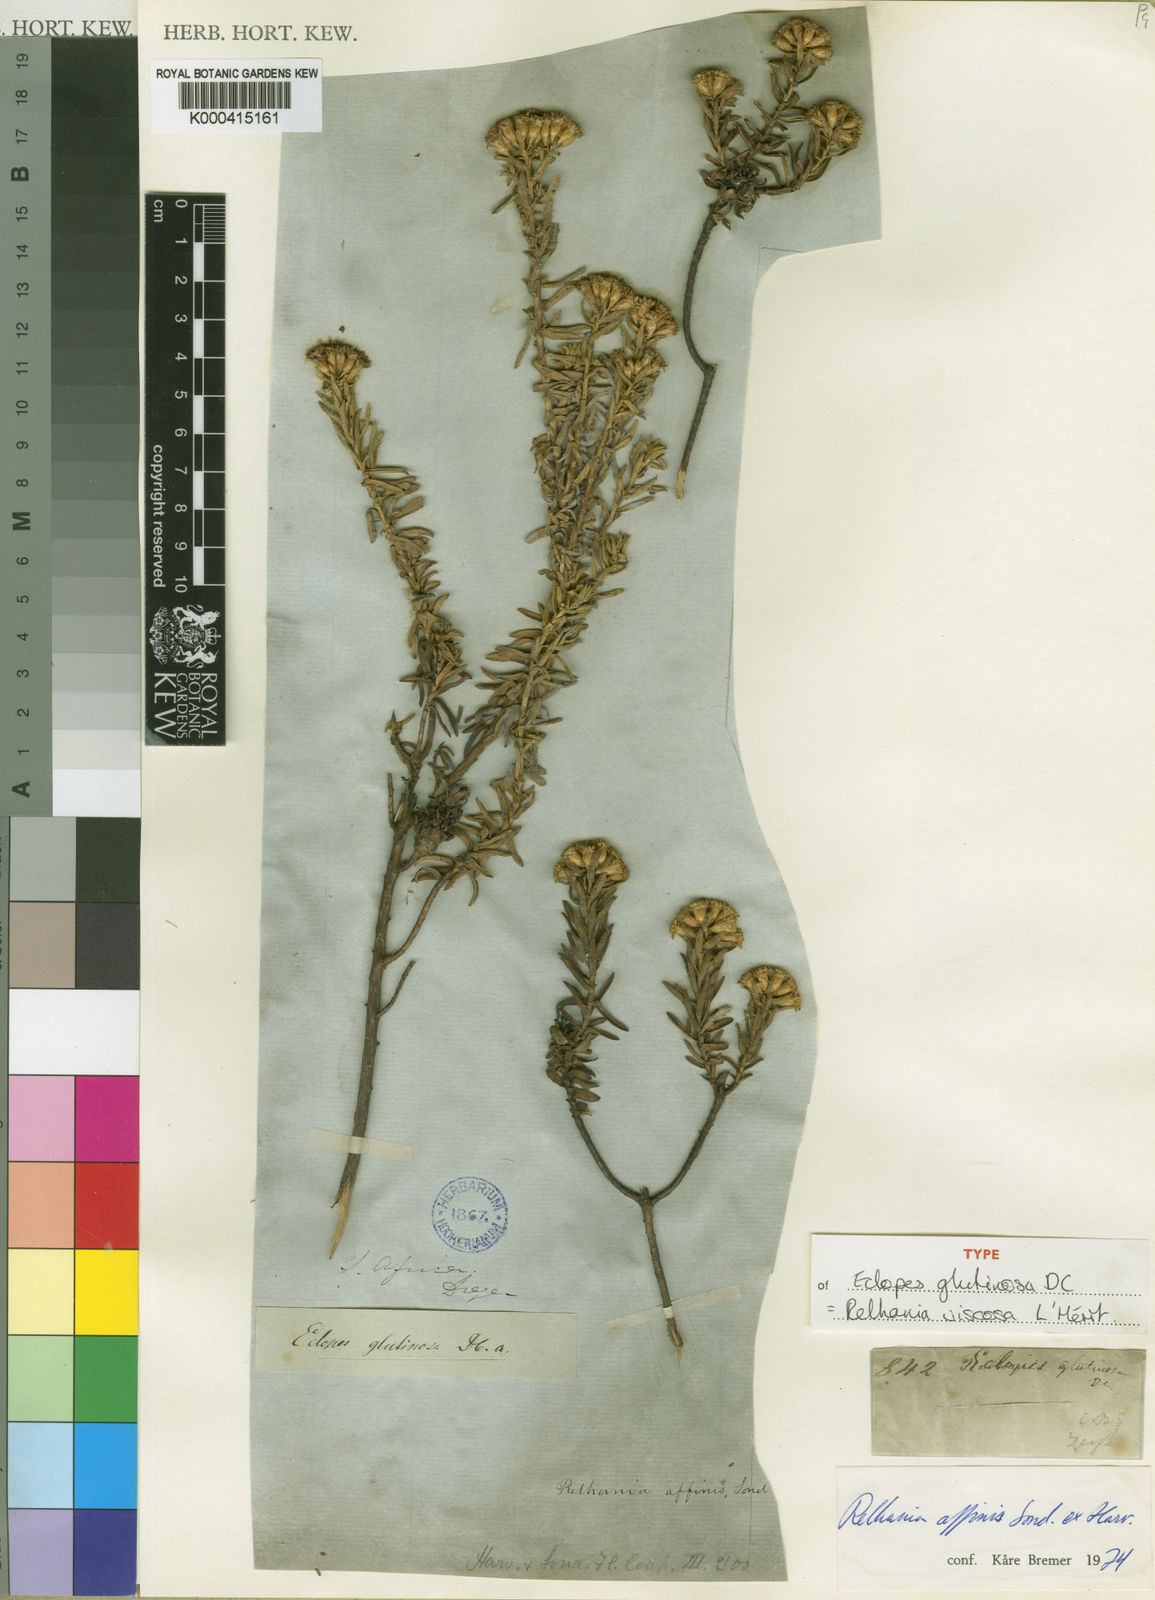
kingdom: Plantae
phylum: Tracheophyta
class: Magnoliopsida
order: Asterales
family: Asteraceae
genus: Oedera
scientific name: Oedera Relhania spec
